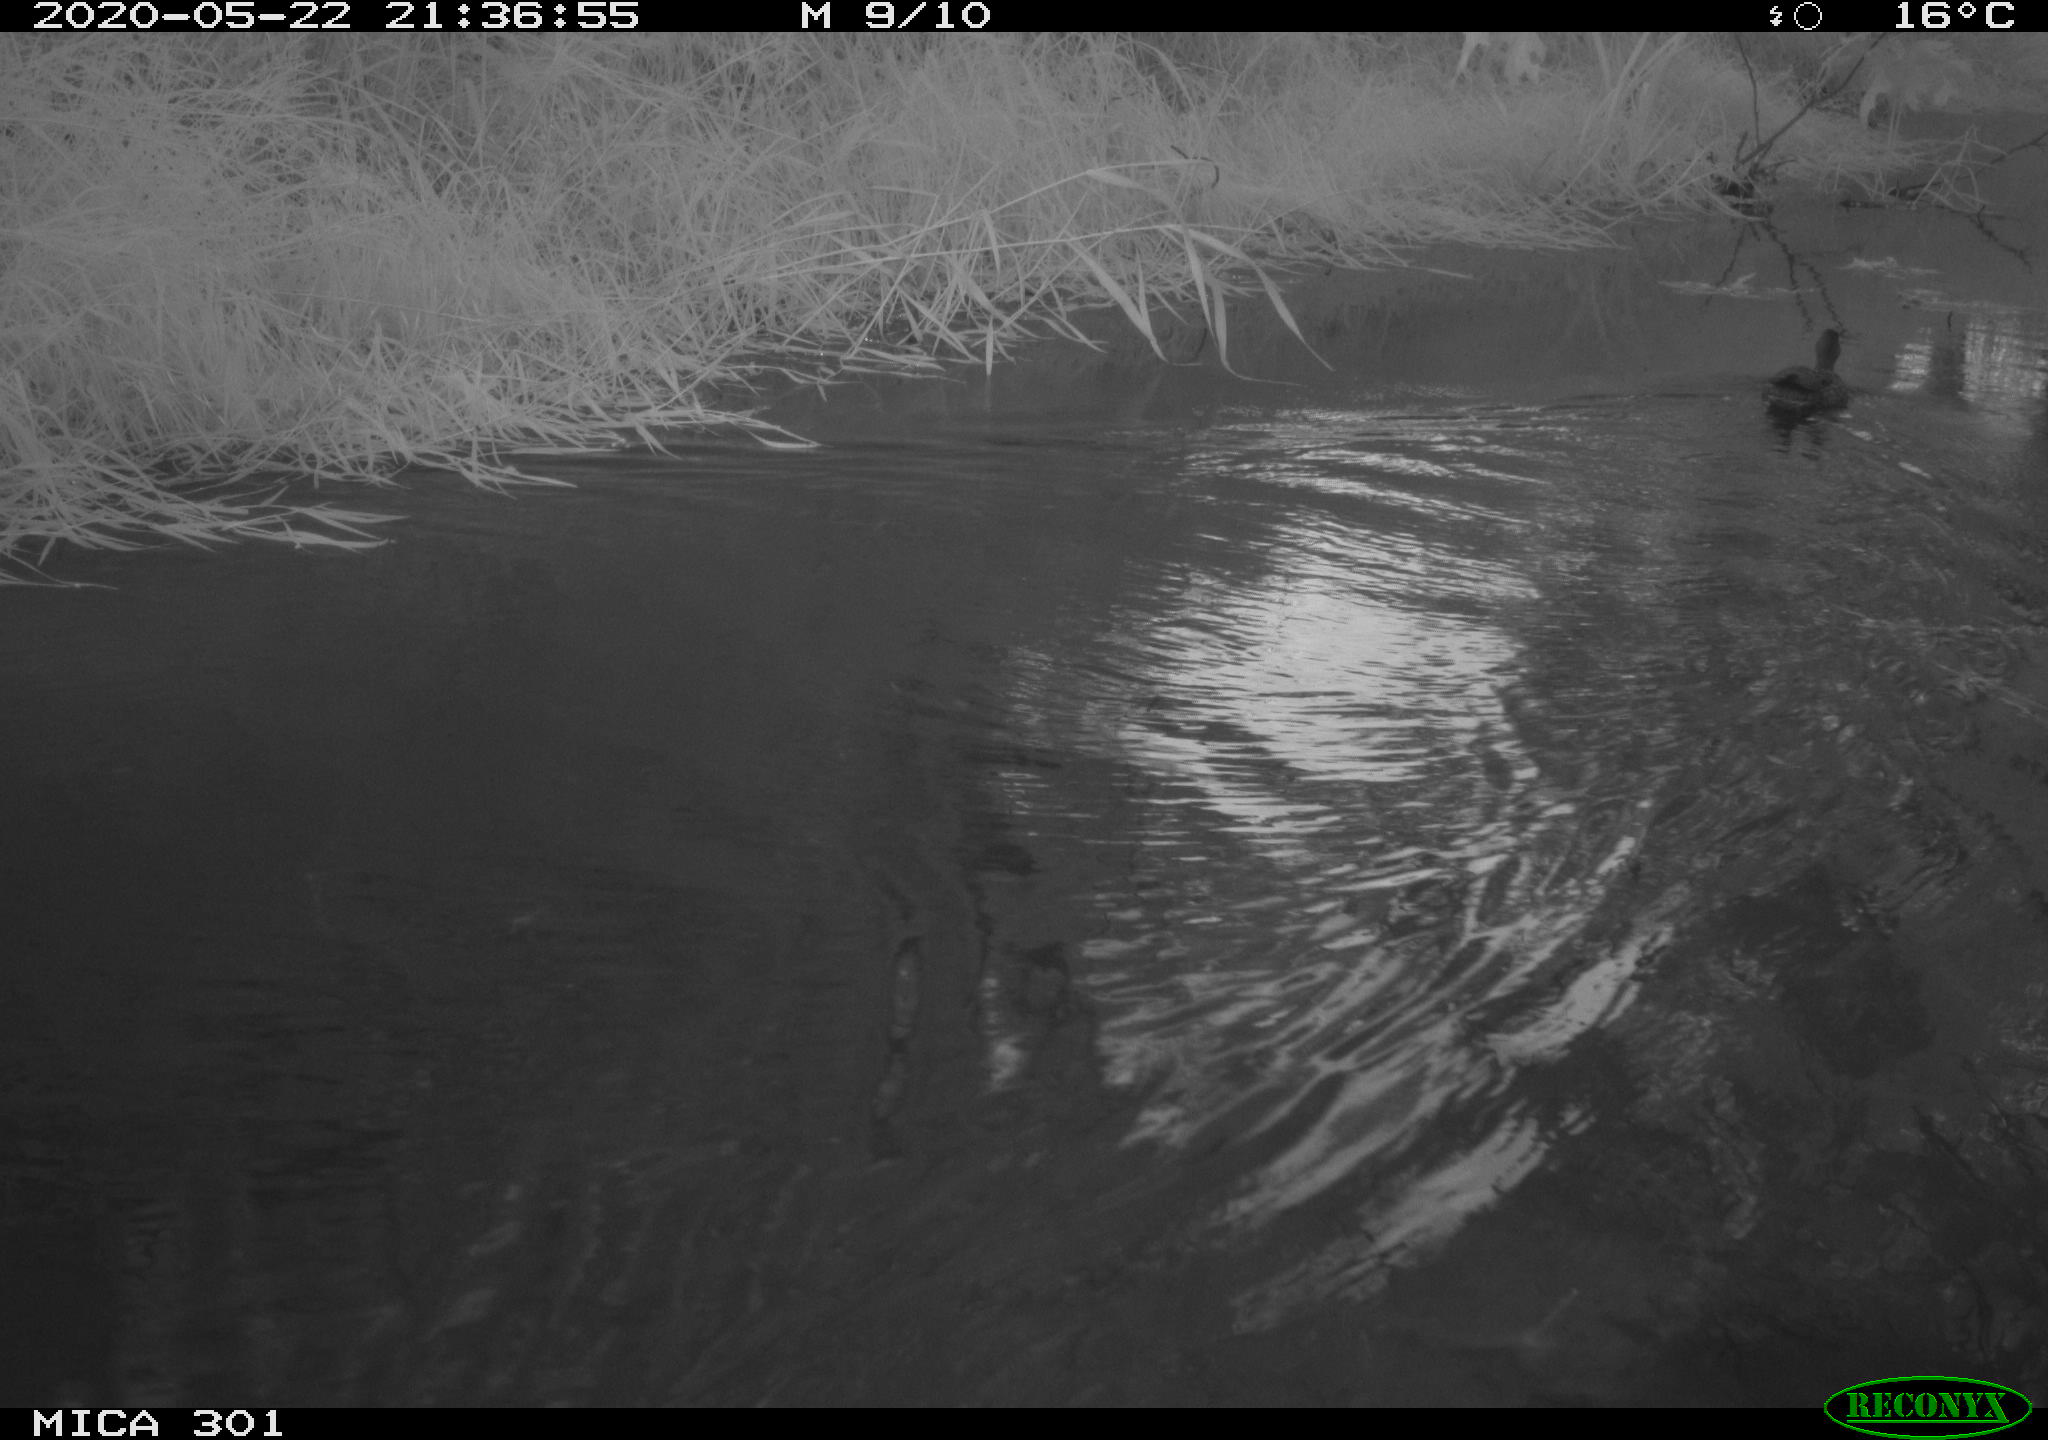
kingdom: Animalia
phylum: Chordata
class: Aves
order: Anseriformes
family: Anatidae
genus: Anas
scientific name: Anas platyrhynchos
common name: Mallard
